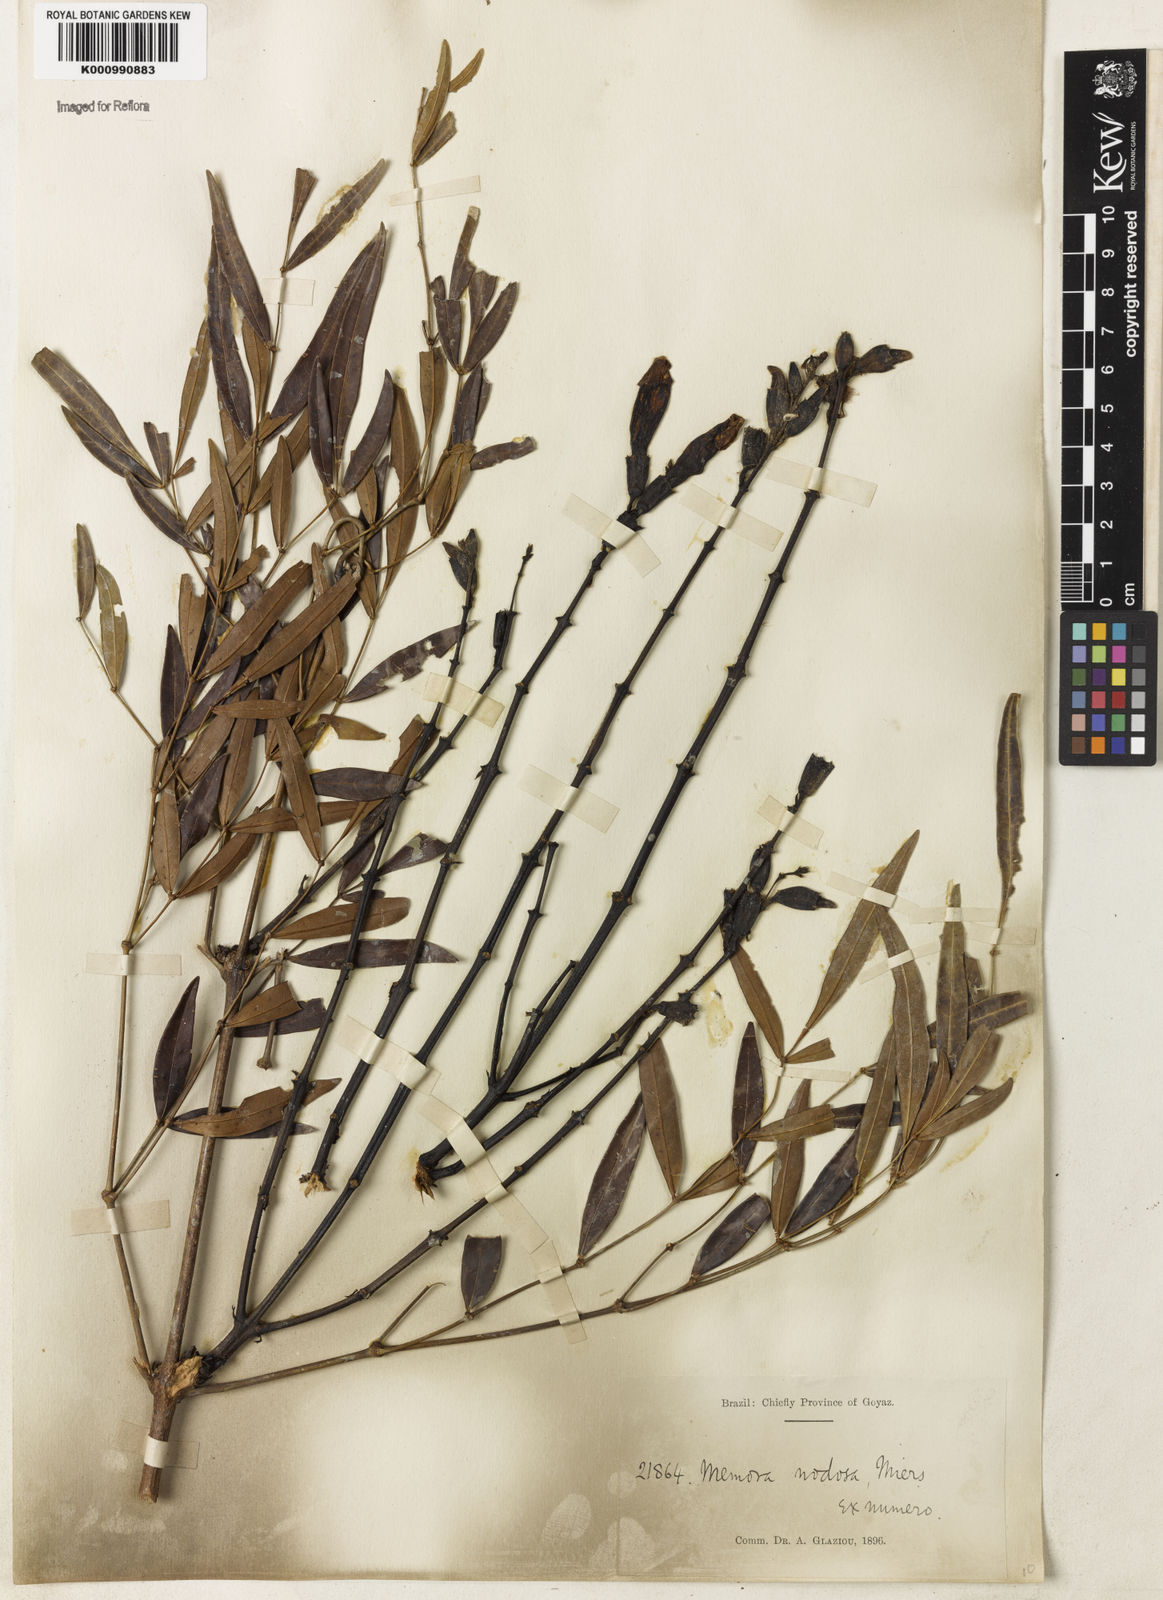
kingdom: Plantae
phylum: Tracheophyta
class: Magnoliopsida
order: Lamiales
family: Bignoniaceae
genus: Adenocalymma
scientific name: Adenocalymma nodosum
